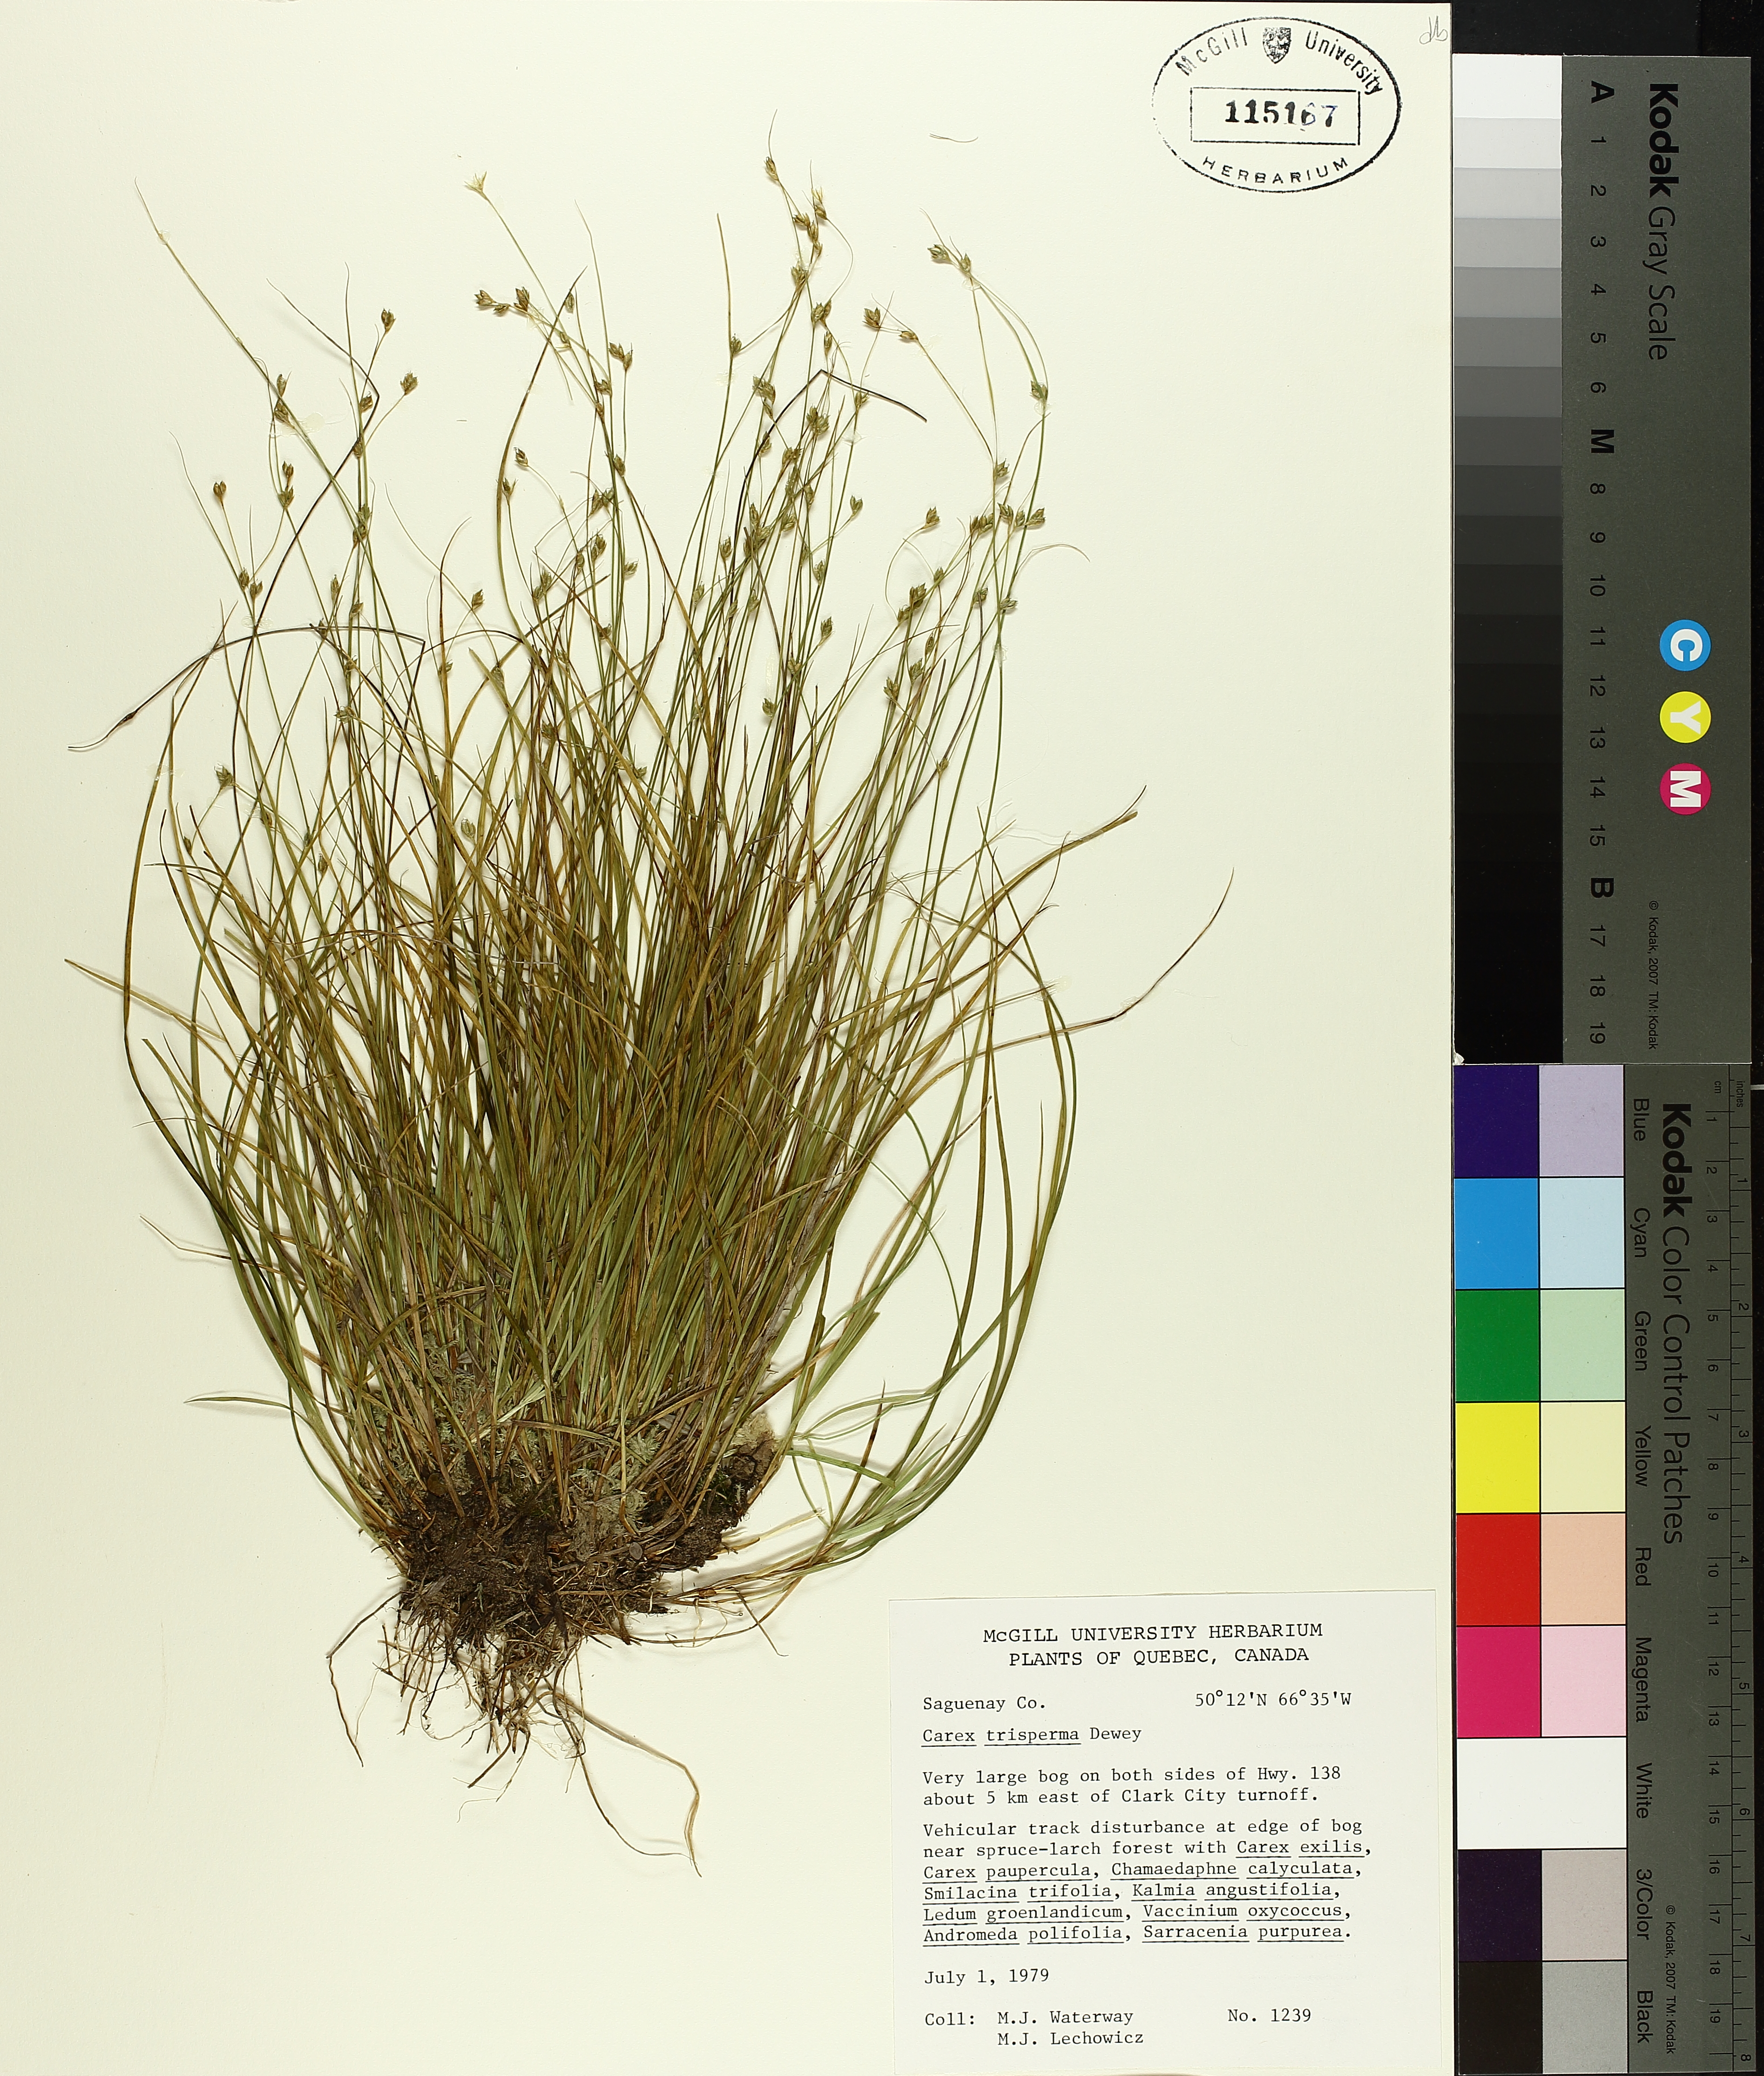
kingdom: Plantae
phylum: Tracheophyta
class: Liliopsida
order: Poales
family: Cyperaceae
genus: Carex
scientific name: Carex trisperma
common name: Three-seeded sedge
